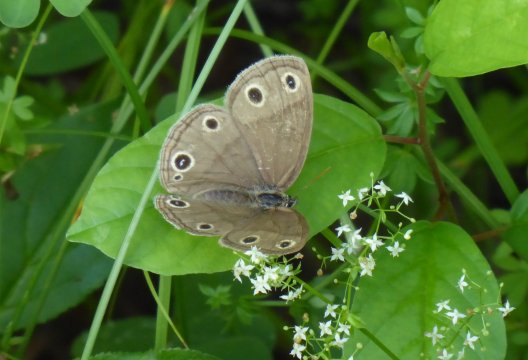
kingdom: Animalia
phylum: Arthropoda
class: Insecta
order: Lepidoptera
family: Nymphalidae
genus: Euptychia
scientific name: Euptychia cymela
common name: Little Wood Satyr
